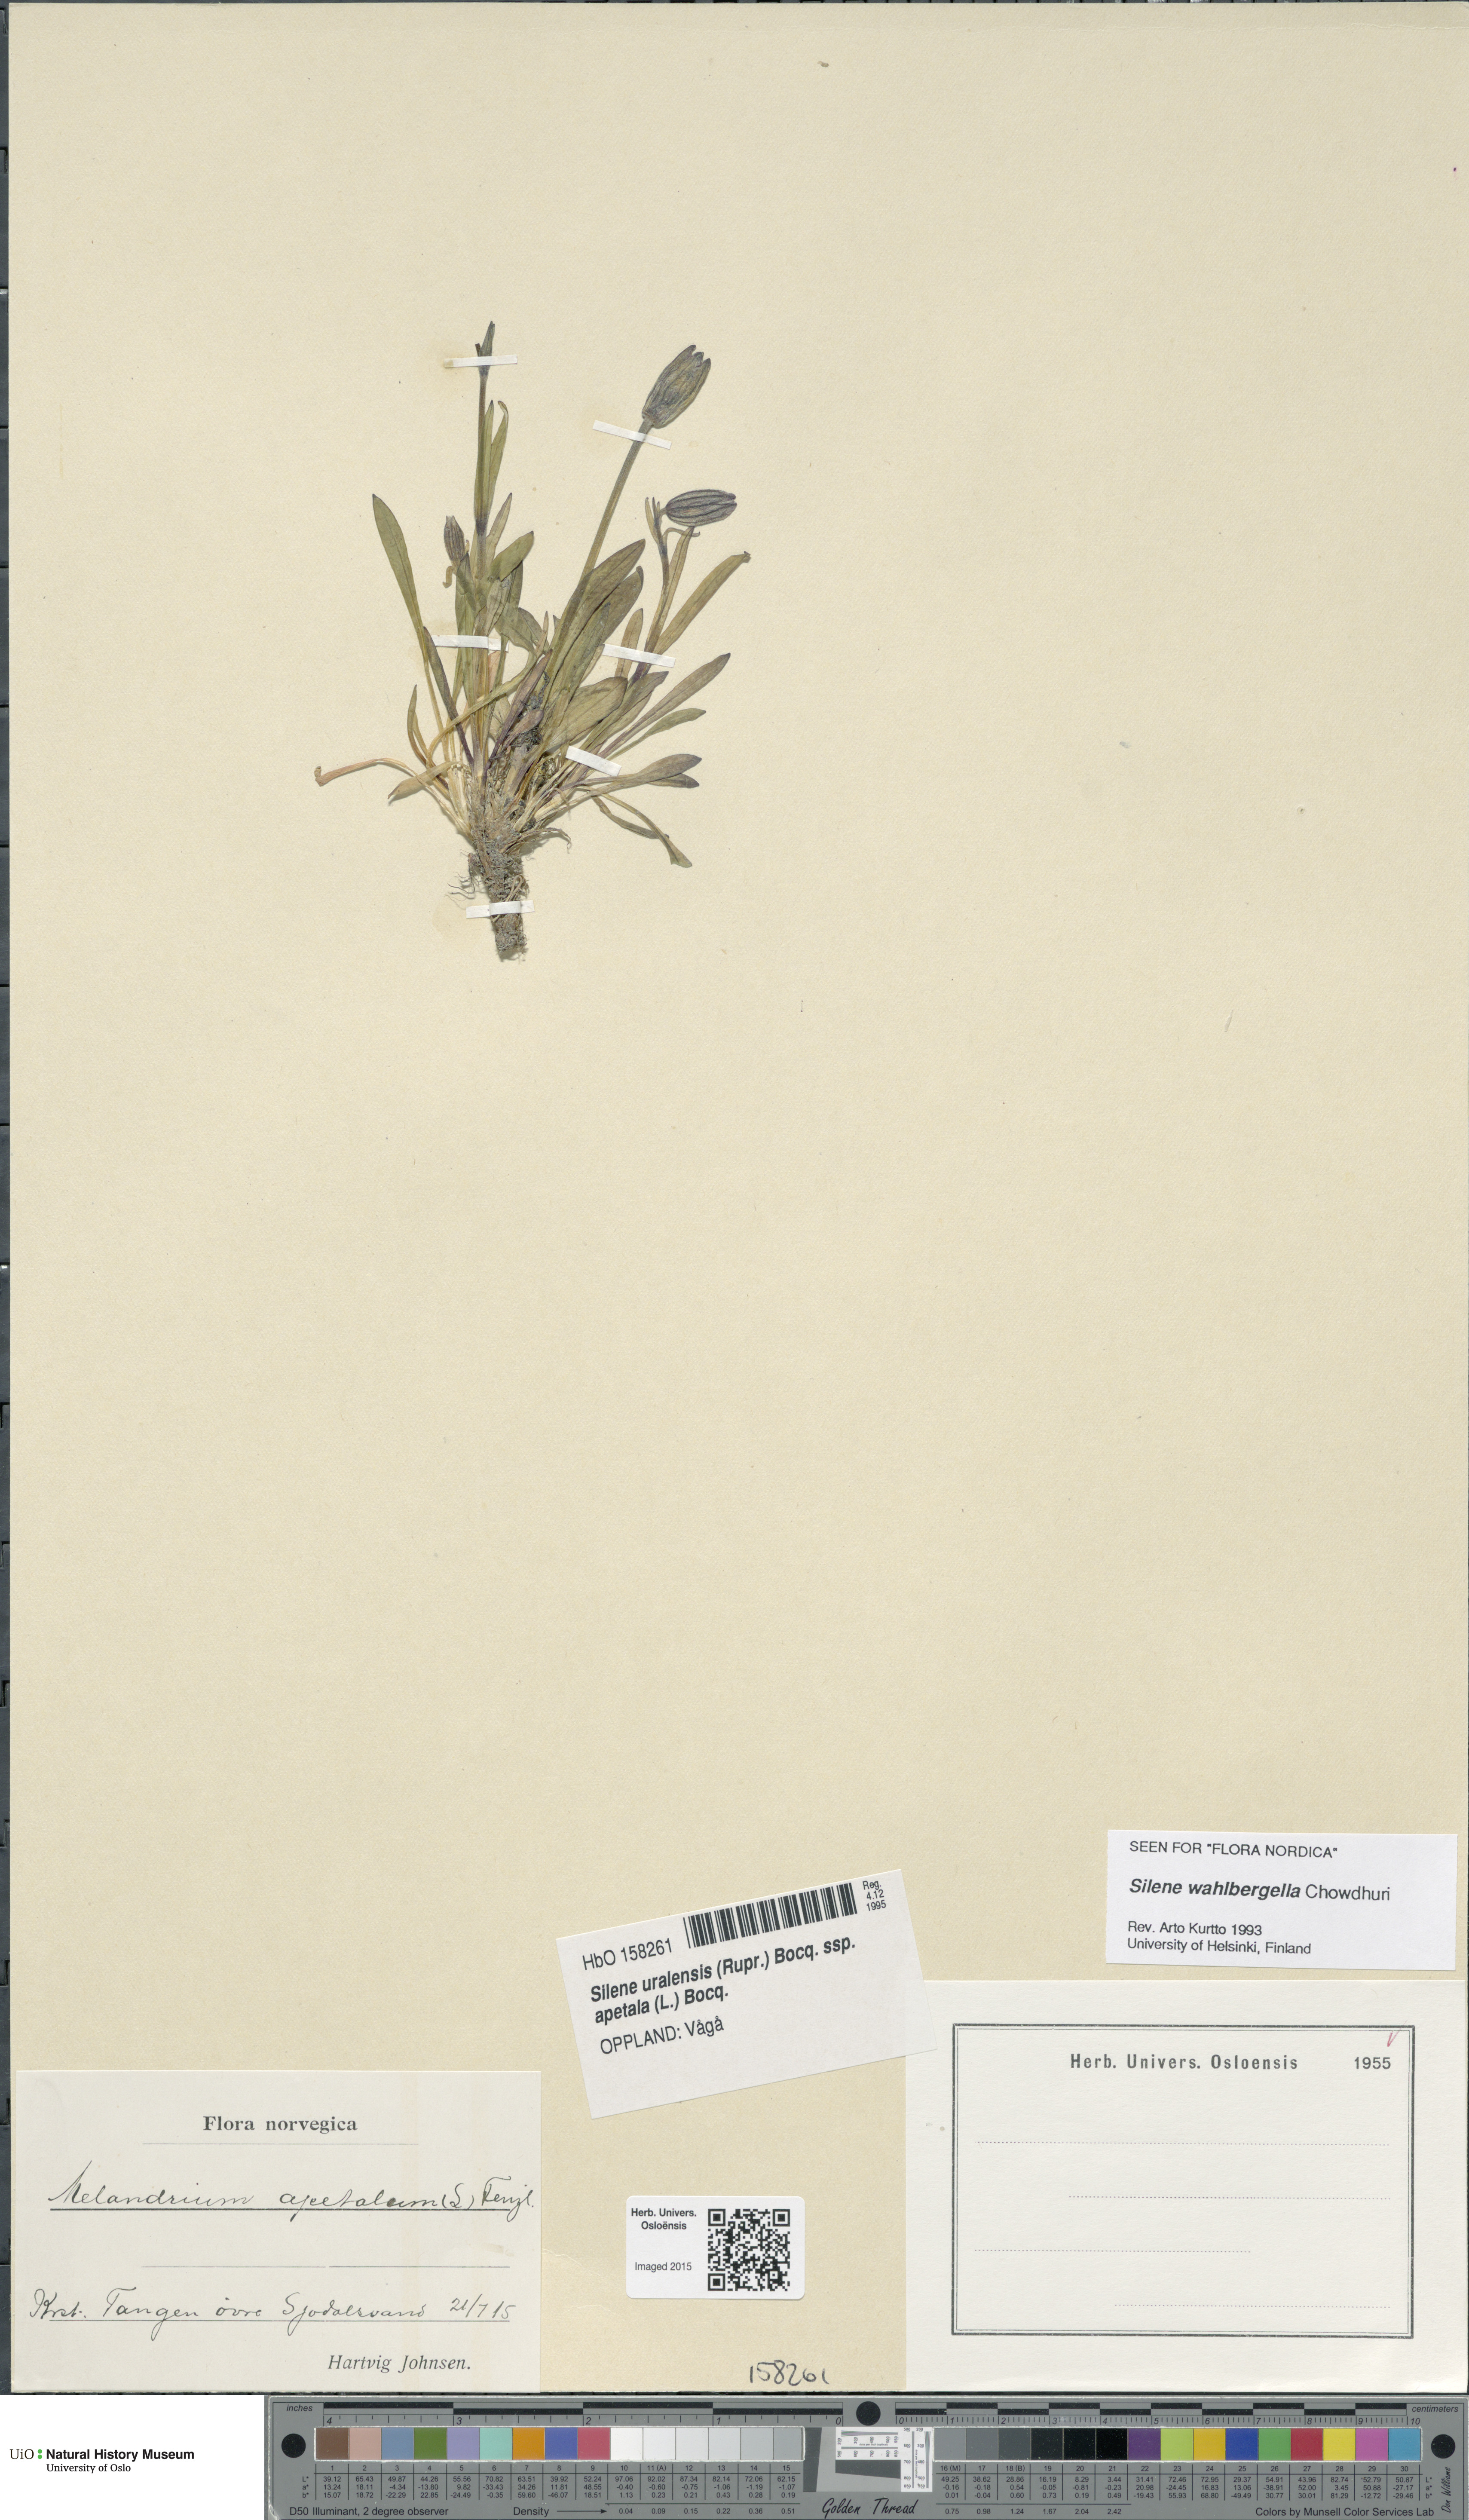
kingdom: Plantae
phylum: Tracheophyta
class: Magnoliopsida
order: Caryophyllales
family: Caryophyllaceae
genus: Silene
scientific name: Silene wahlbergella
